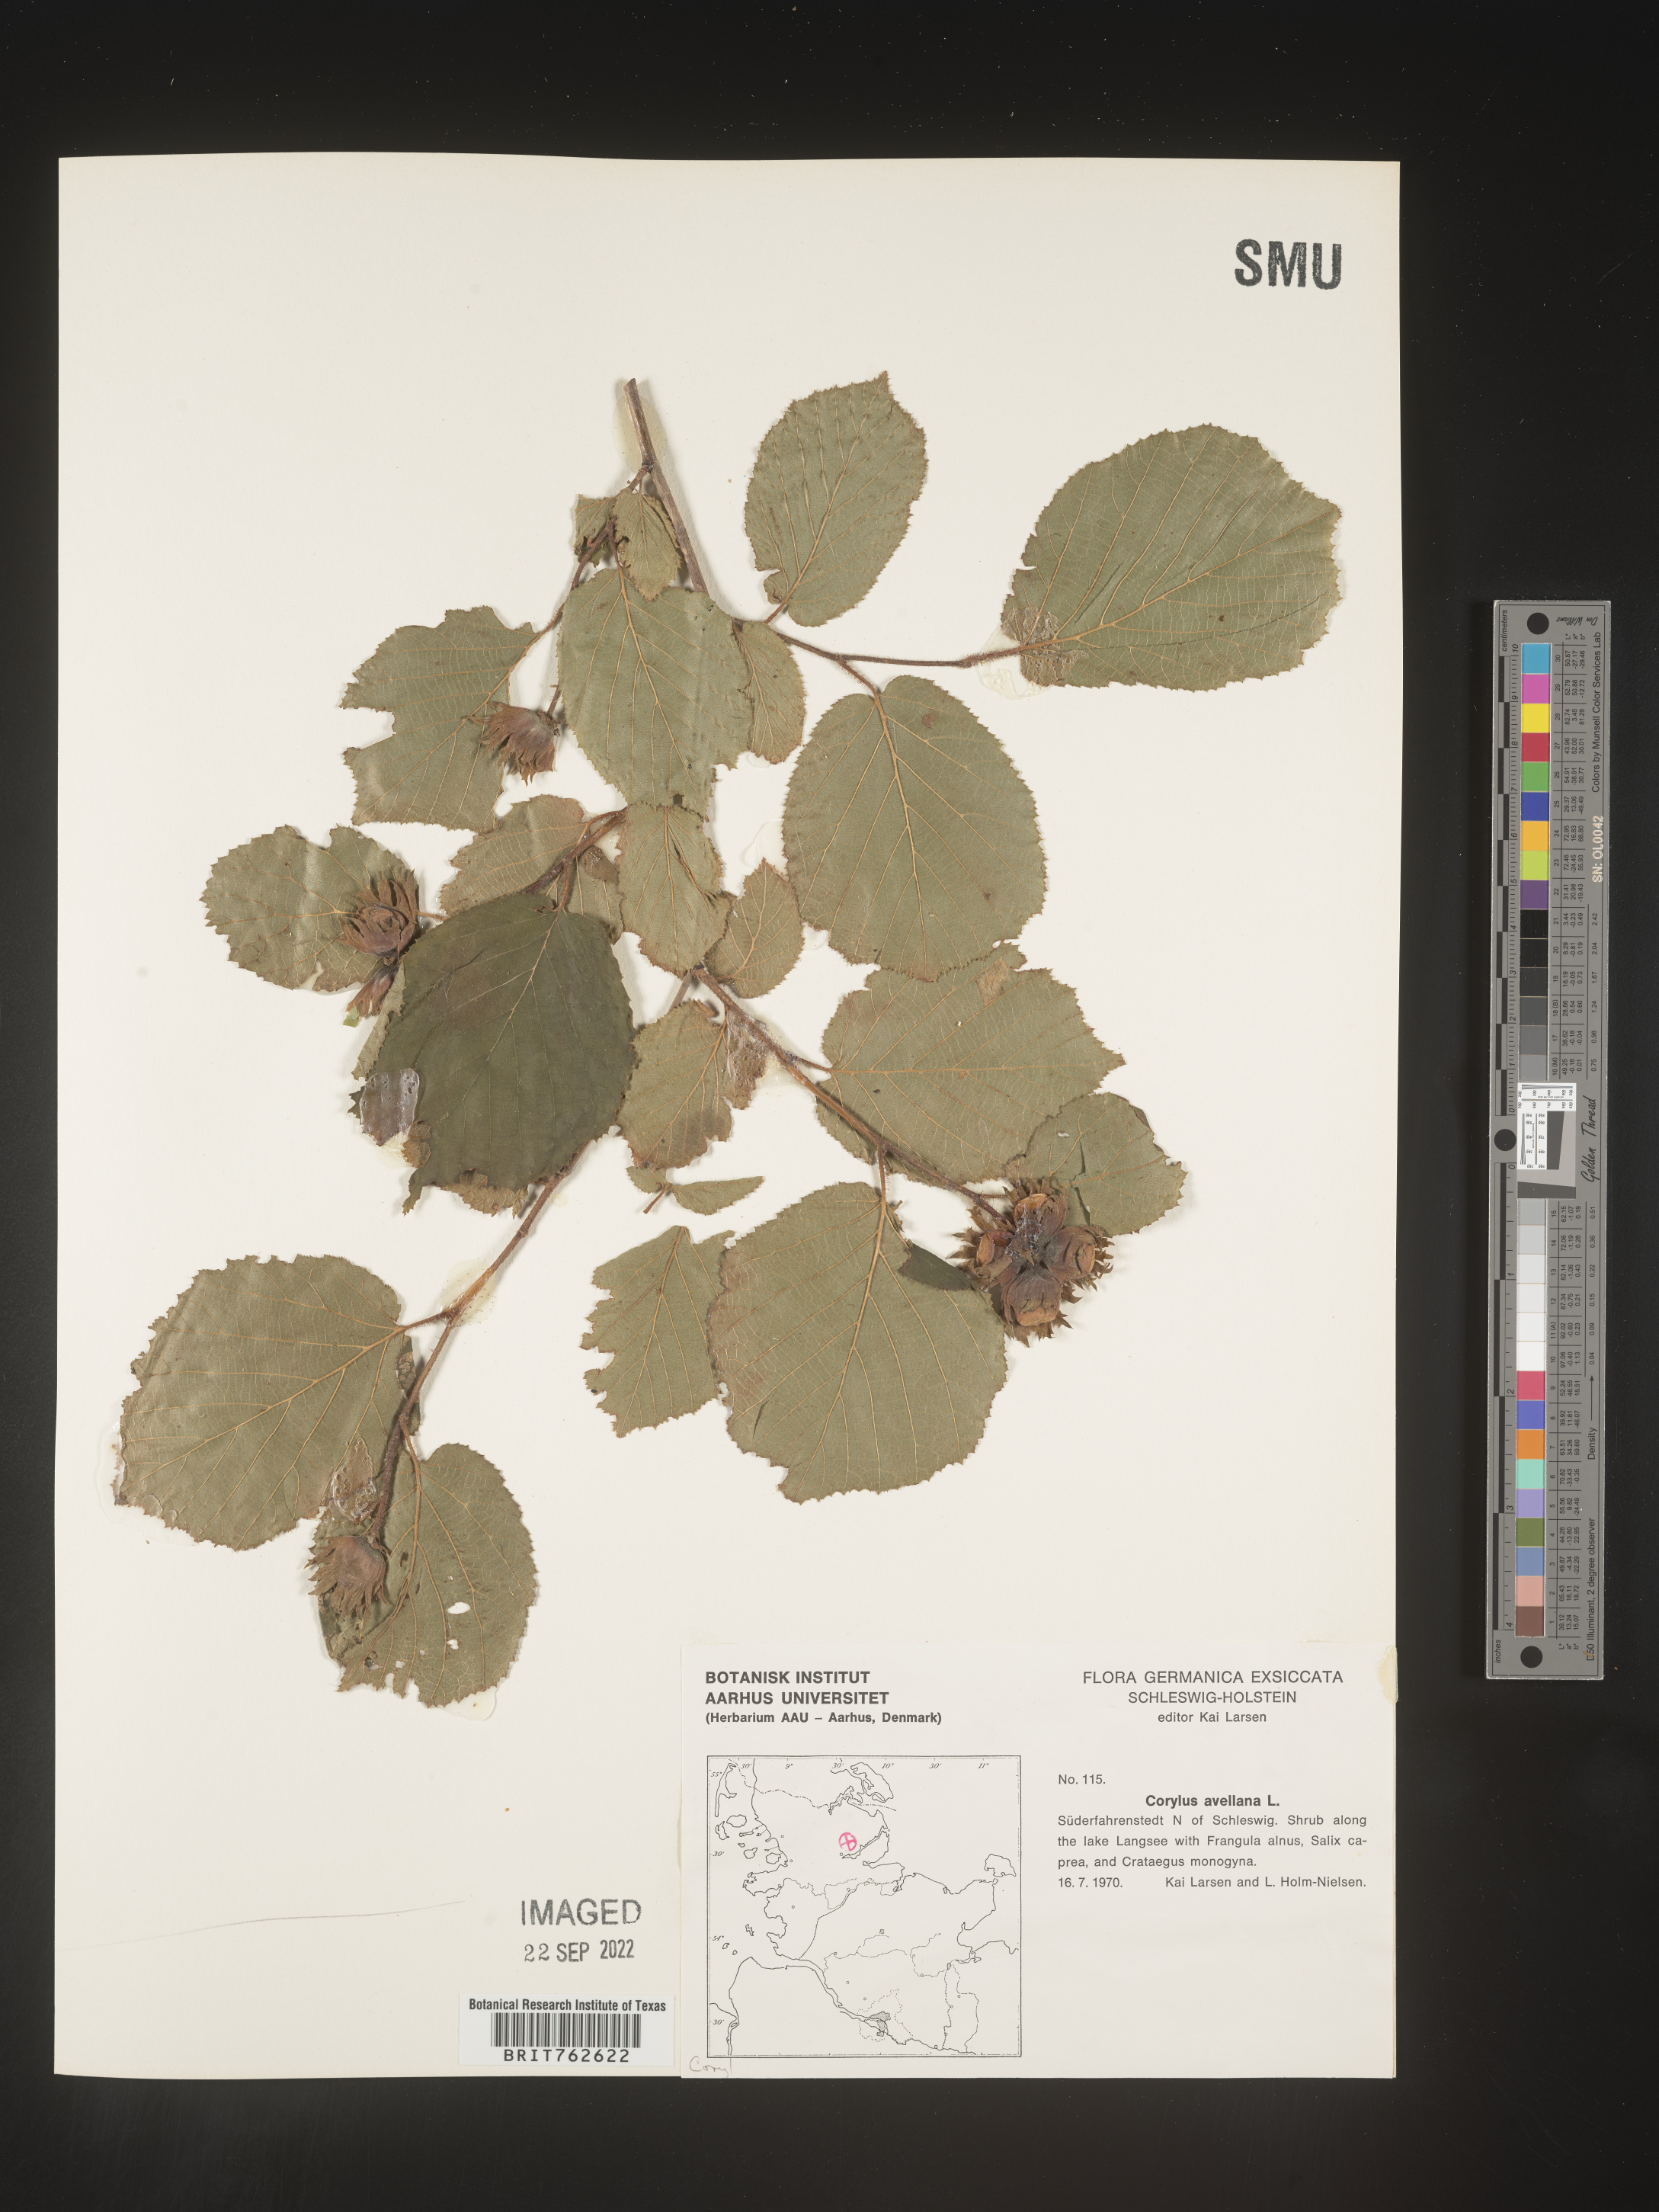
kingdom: Plantae
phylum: Tracheophyta
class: Magnoliopsida
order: Fagales
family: Betulaceae
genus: Corylus
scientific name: Corylus
